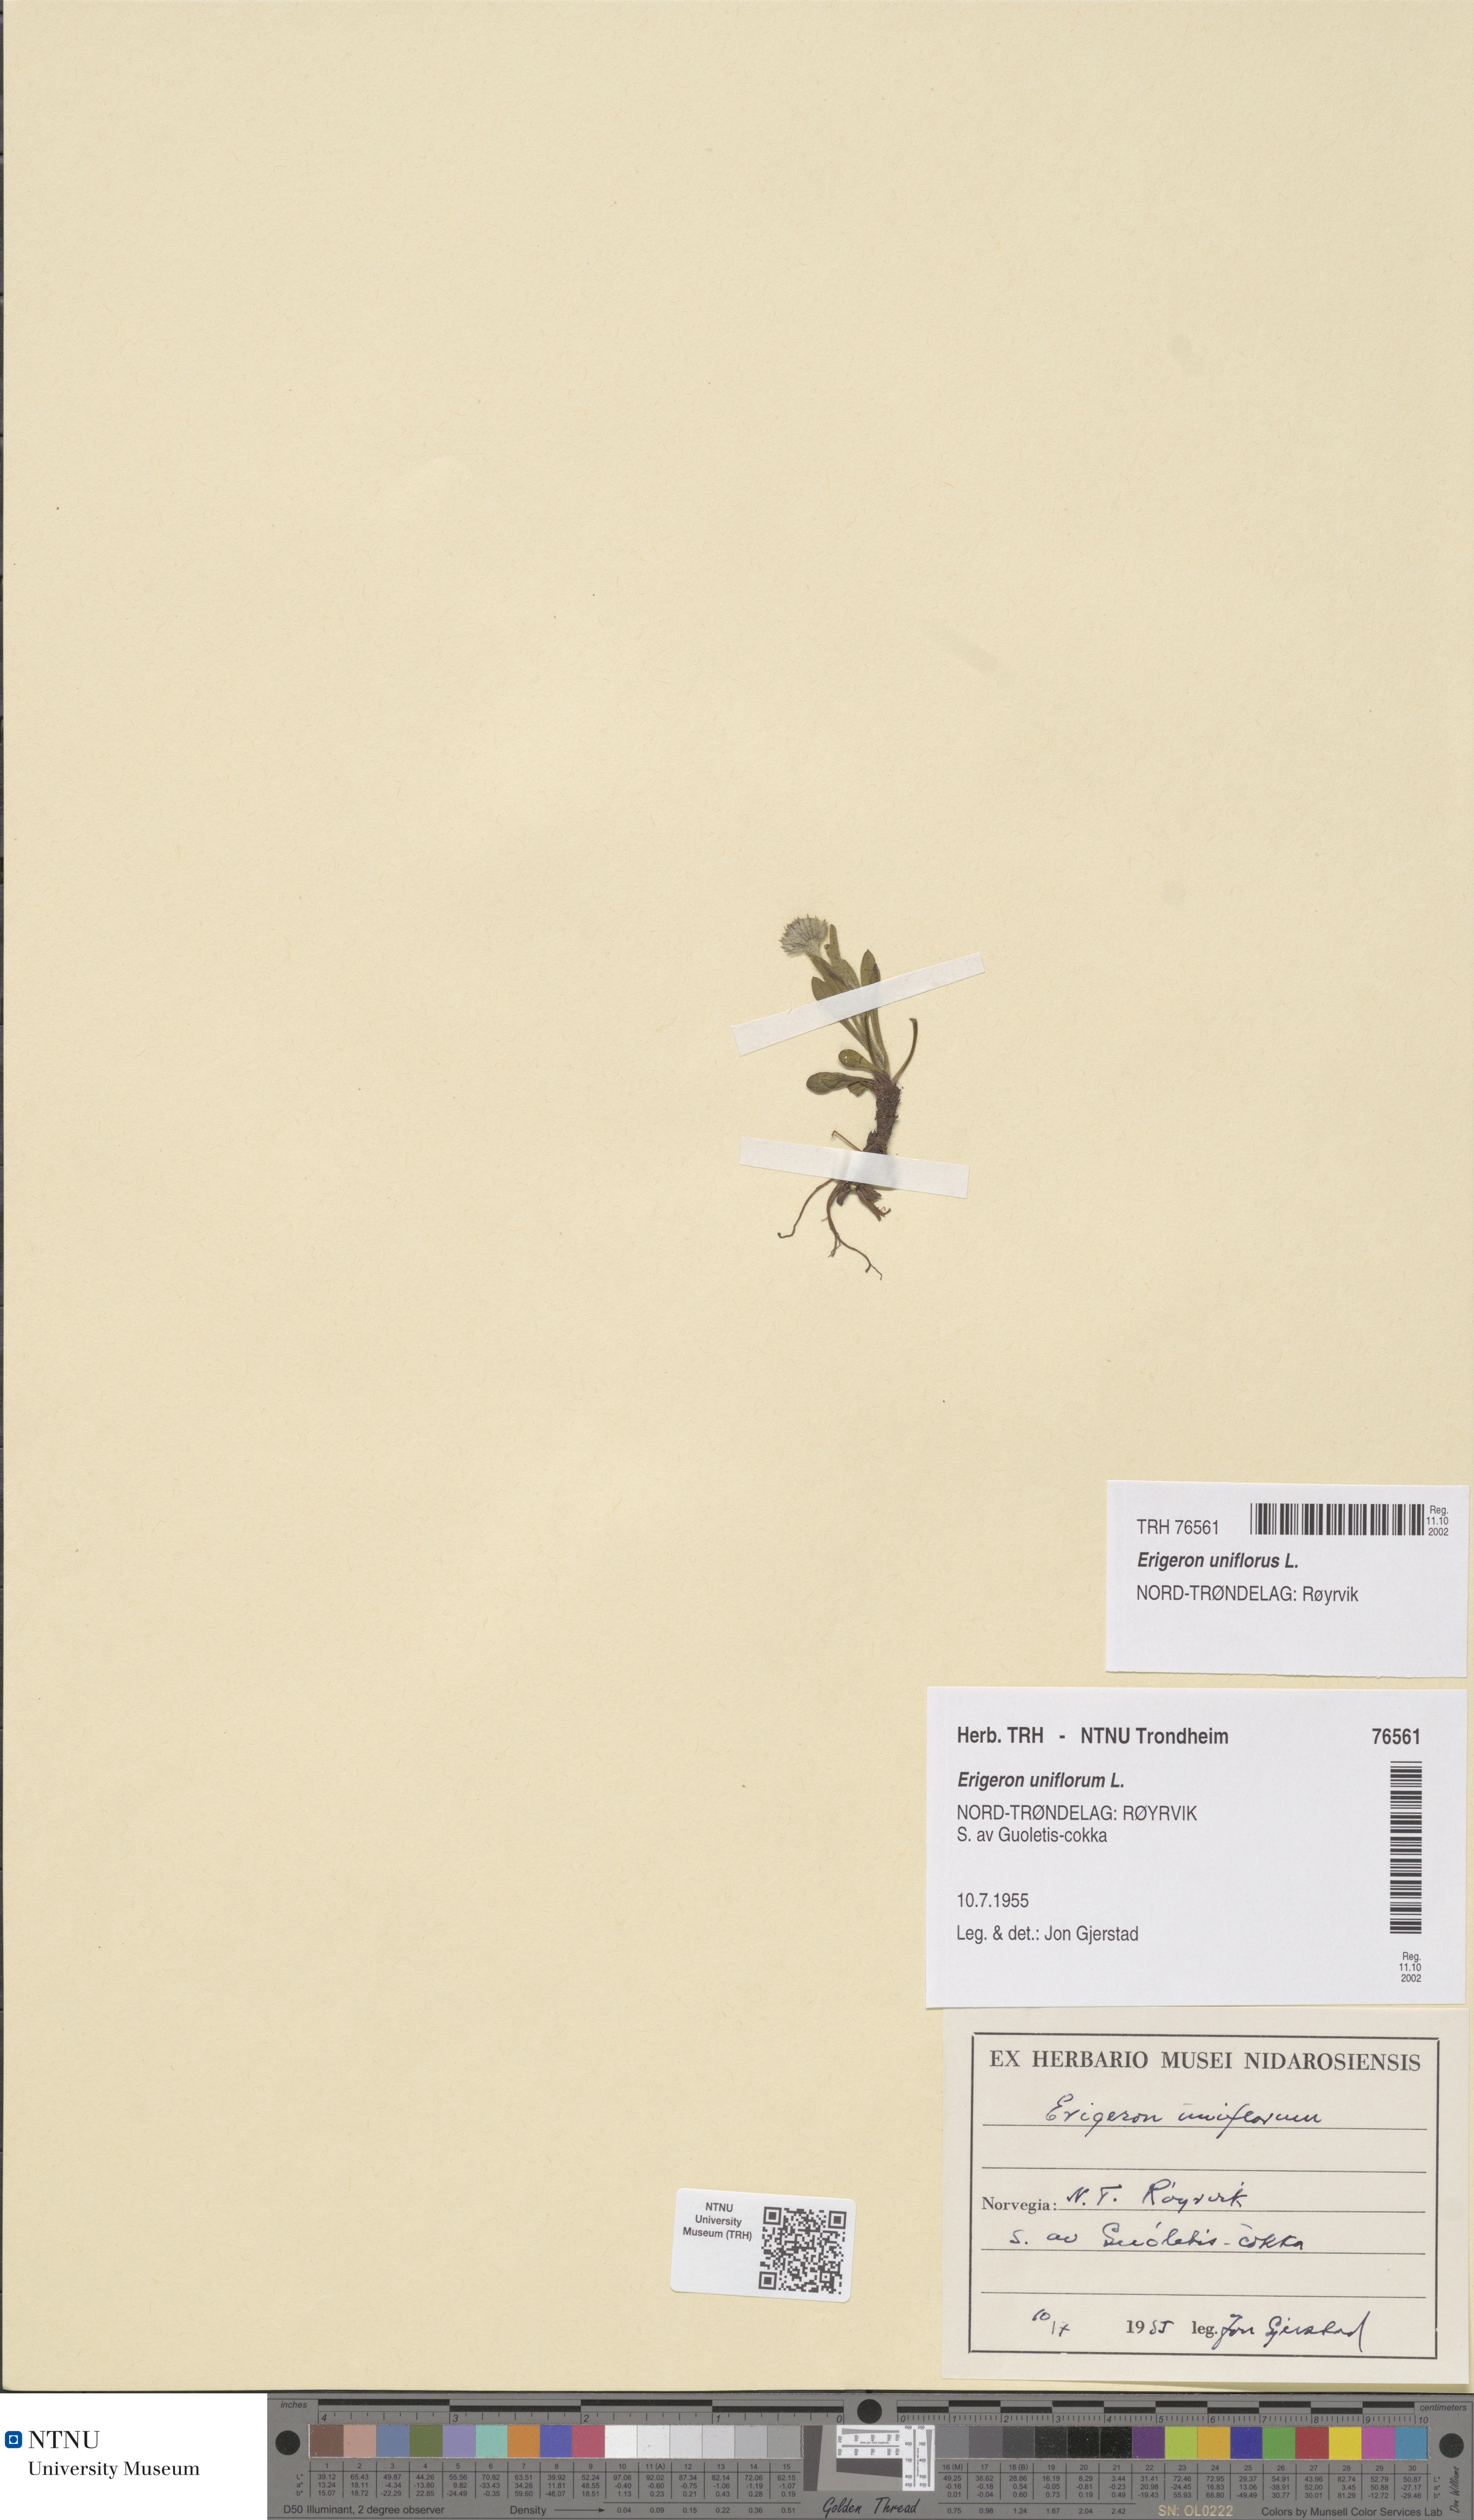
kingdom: Plantae
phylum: Tracheophyta
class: Magnoliopsida
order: Asterales
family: Asteraceae
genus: Erigeron
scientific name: Erigeron uniflorus
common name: Northern daisy
